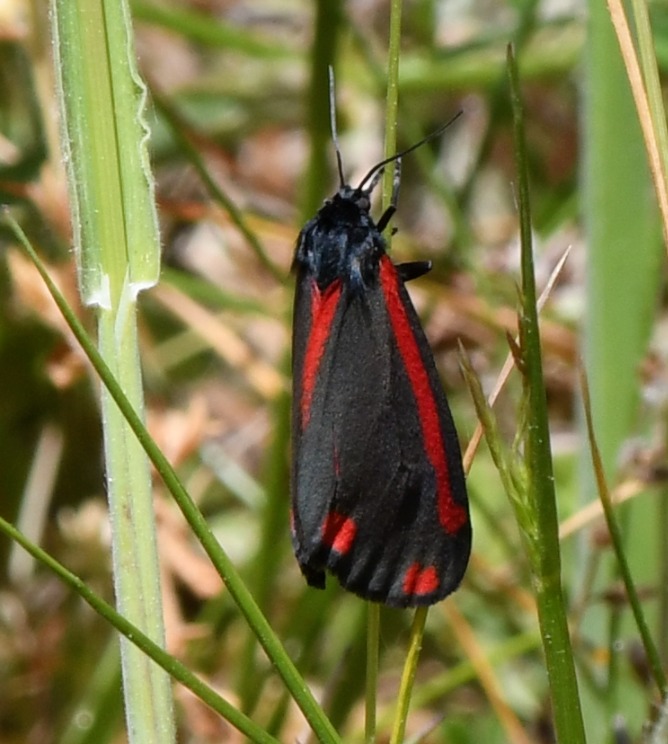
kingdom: Animalia
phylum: Arthropoda
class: Insecta
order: Lepidoptera
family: Erebidae
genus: Tyria
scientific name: Tyria jacobaeae
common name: Blodplet
